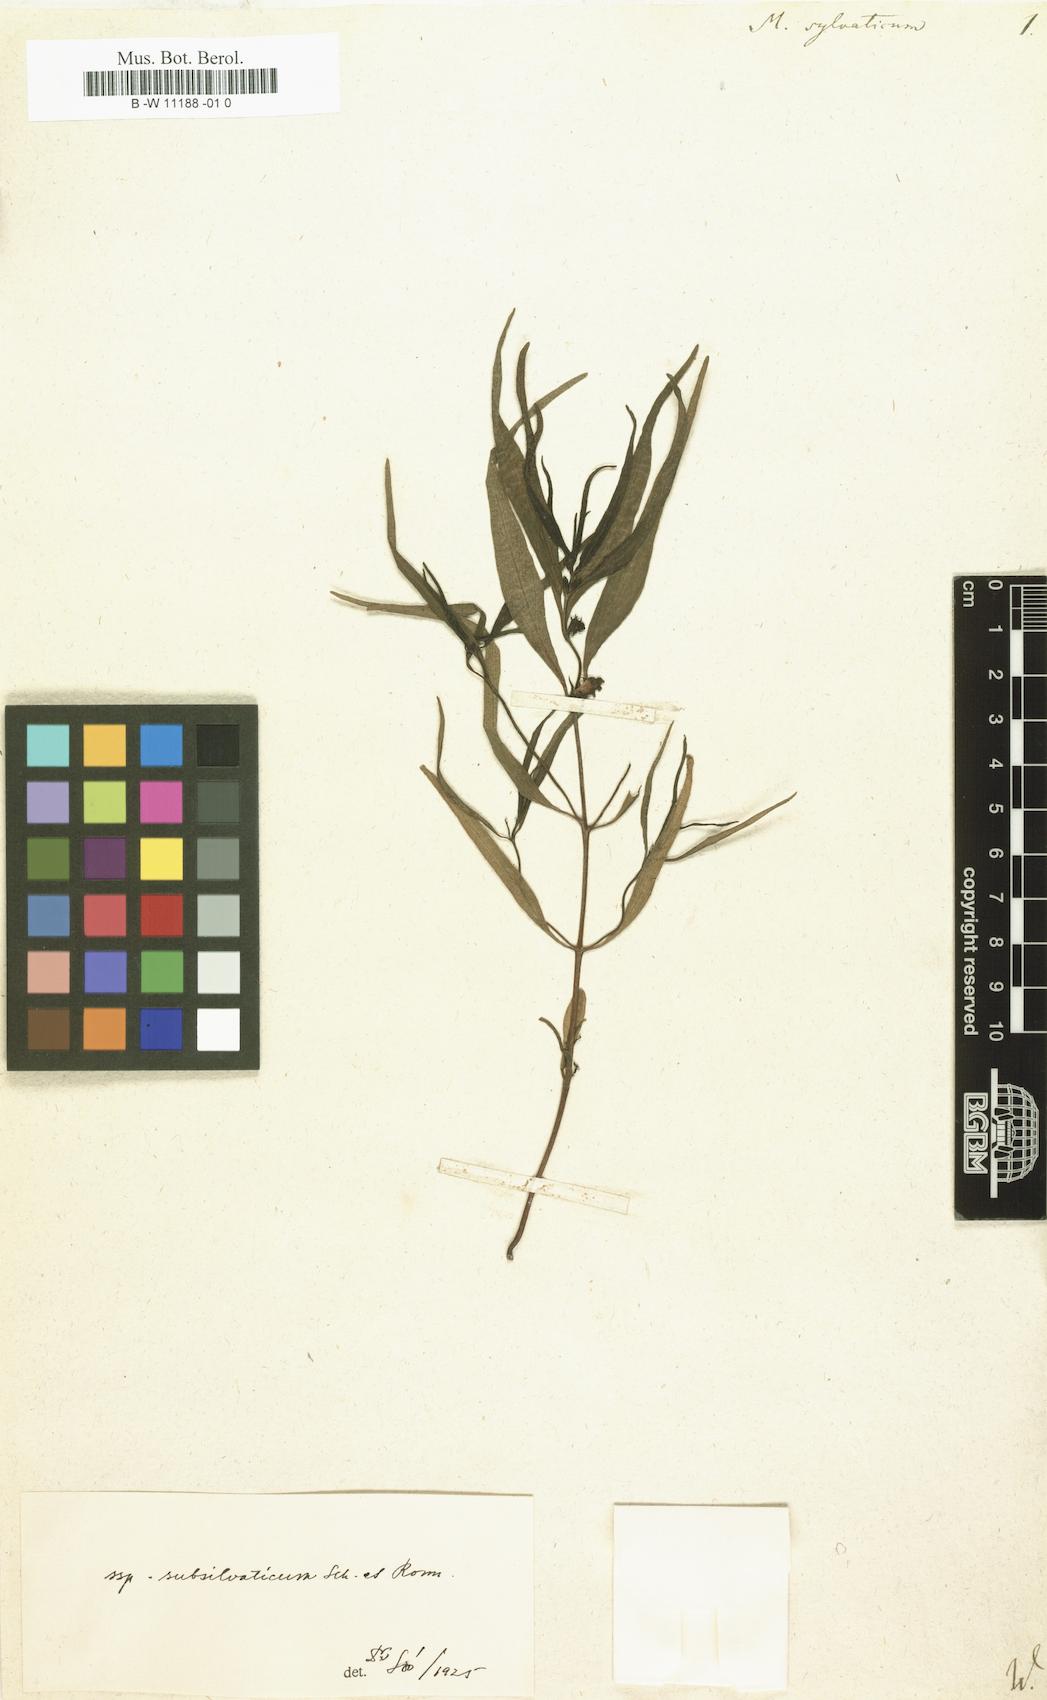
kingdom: Plantae
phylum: Tracheophyta
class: Magnoliopsida
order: Lamiales
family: Orobanchaceae
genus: Melampyrum
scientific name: Melampyrum sylvaticum
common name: Small cow-wheat
